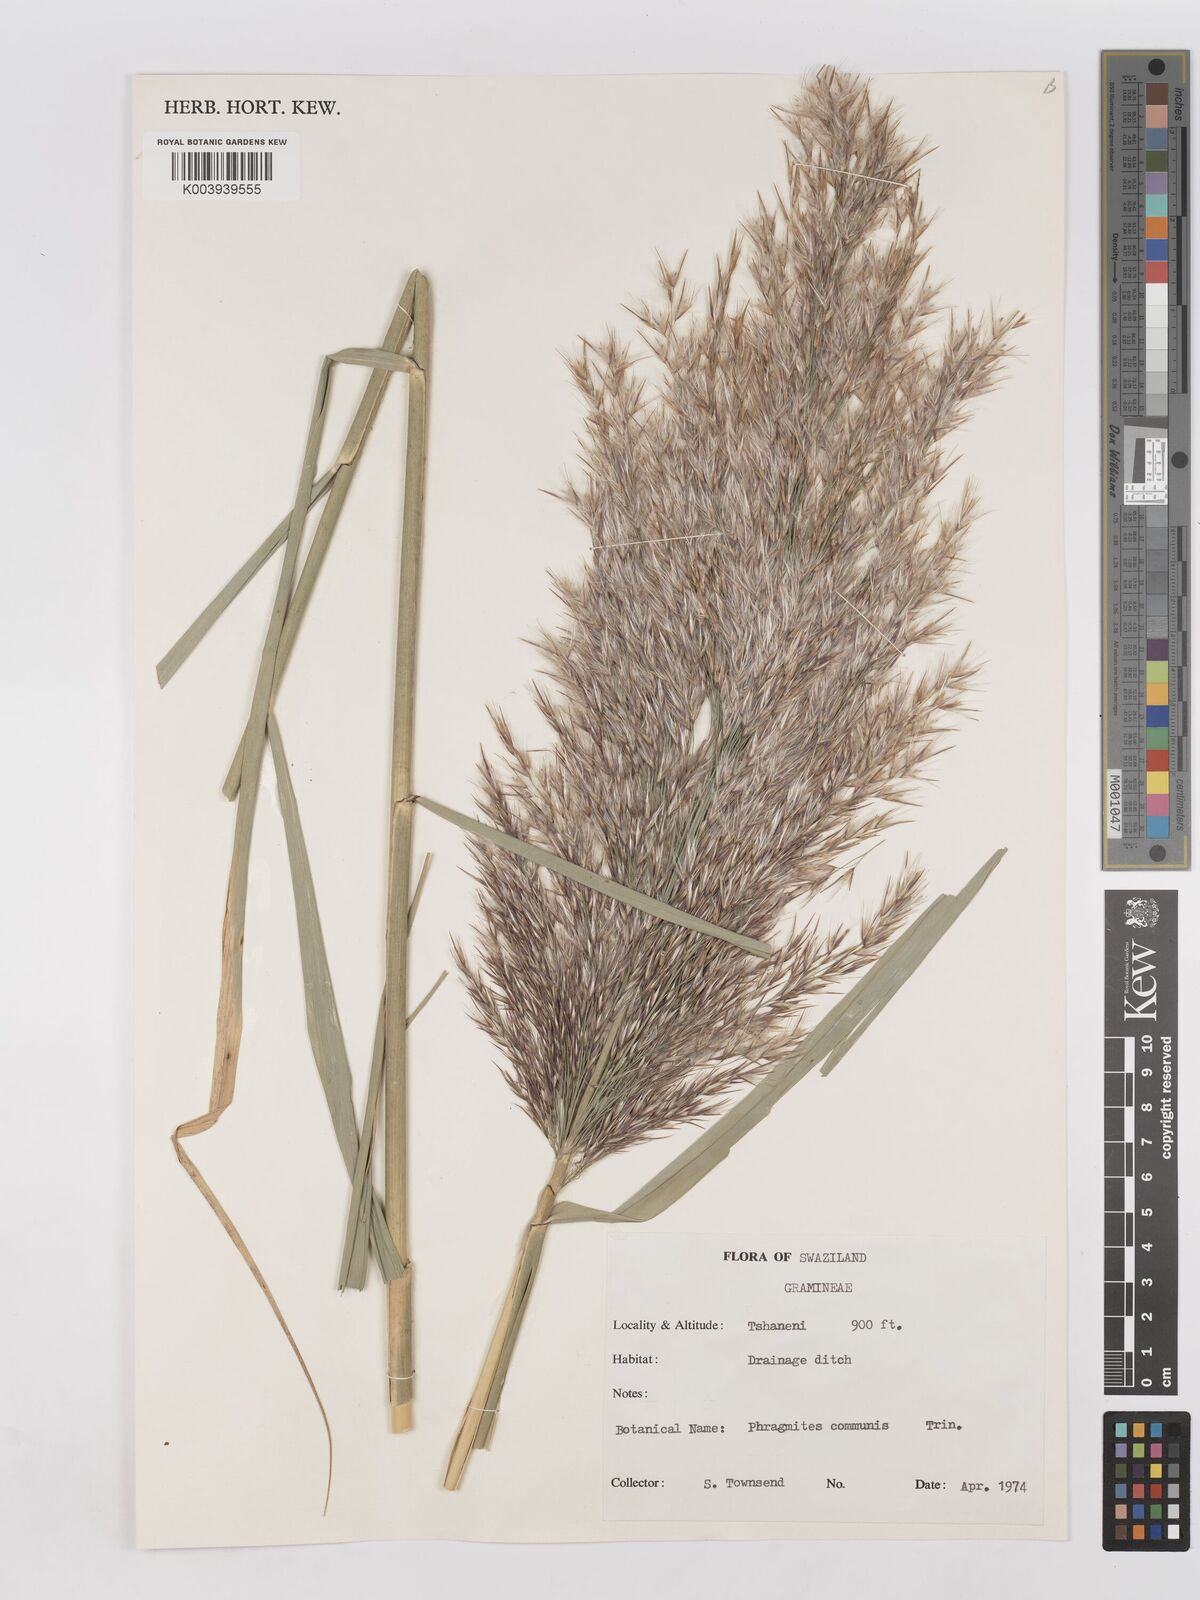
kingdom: Plantae
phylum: Tracheophyta
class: Liliopsida
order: Poales
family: Poaceae
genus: Phragmites
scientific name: Phragmites australis
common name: Common reed
